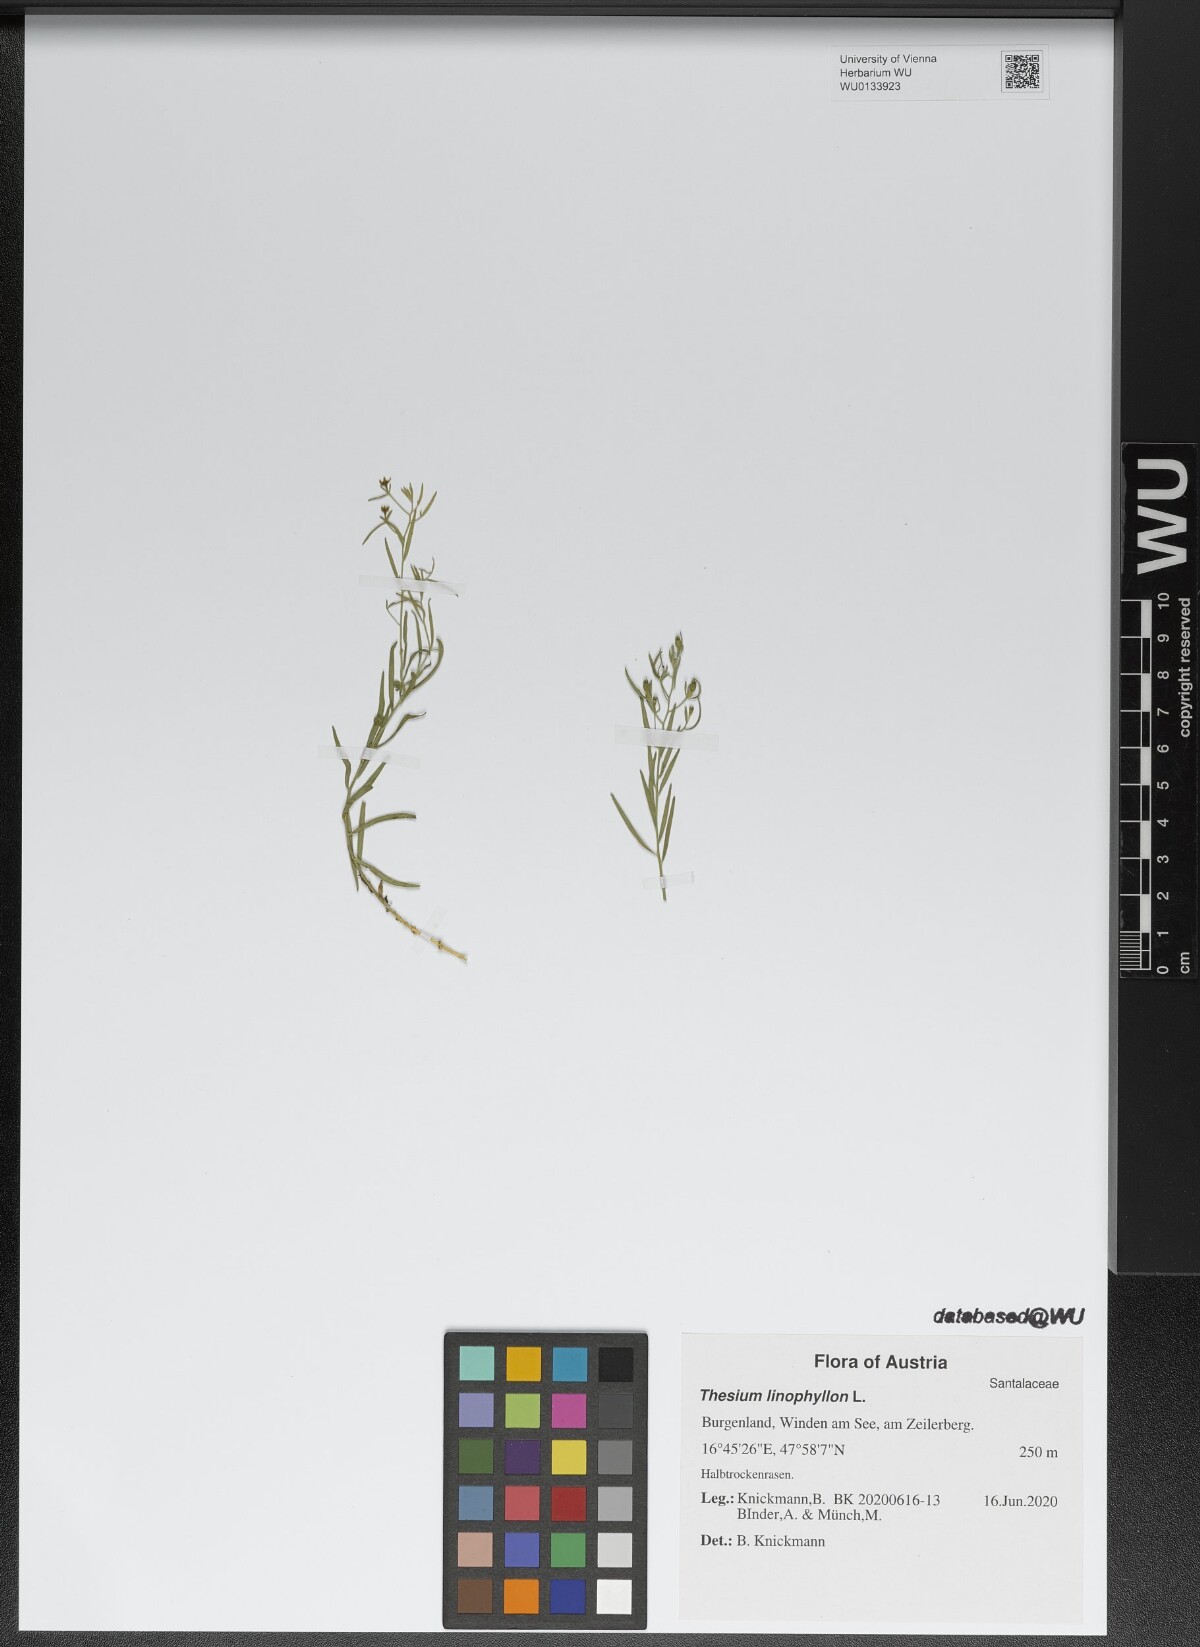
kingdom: Plantae
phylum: Tracheophyta
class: Magnoliopsida
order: Santalales
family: Thesiaceae
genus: Thesium
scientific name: Thesium linophyllon
